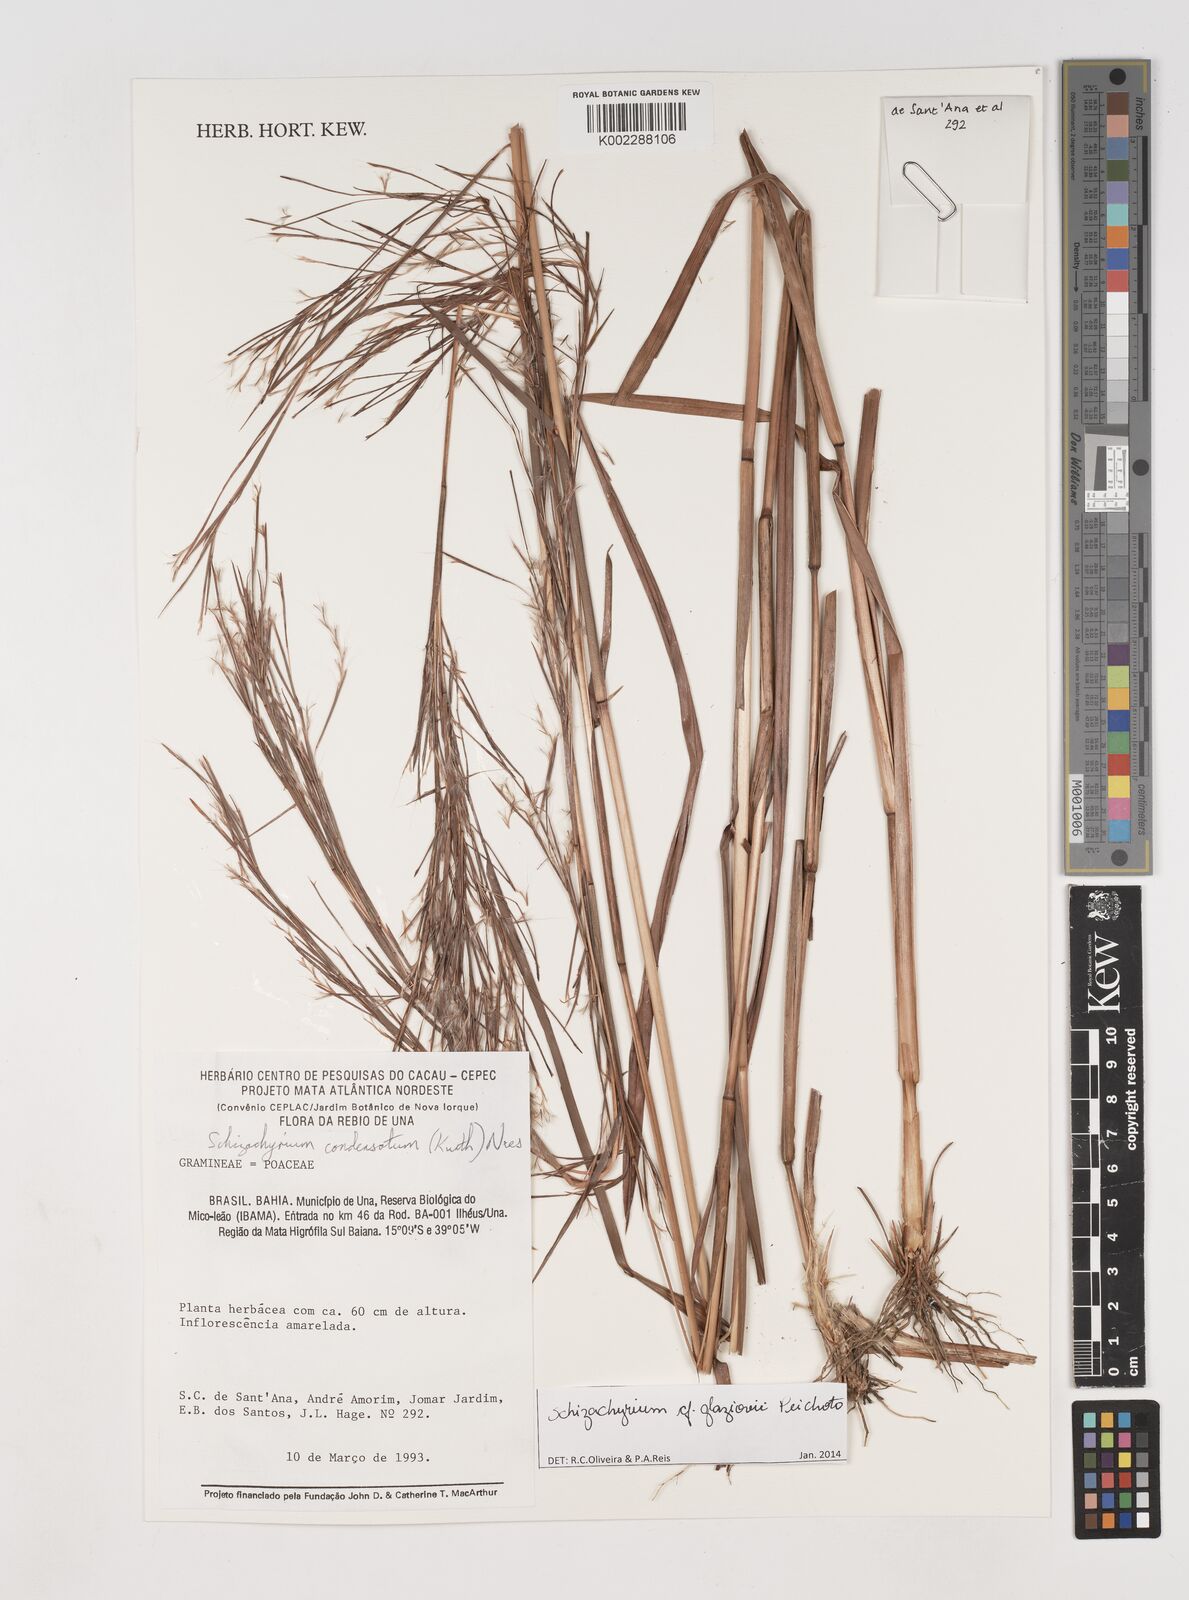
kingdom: Plantae
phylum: Tracheophyta
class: Liliopsida
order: Poales
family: Poaceae
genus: Schizachyrium
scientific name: Schizachyrium condensatum
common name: Bush beardgrass
